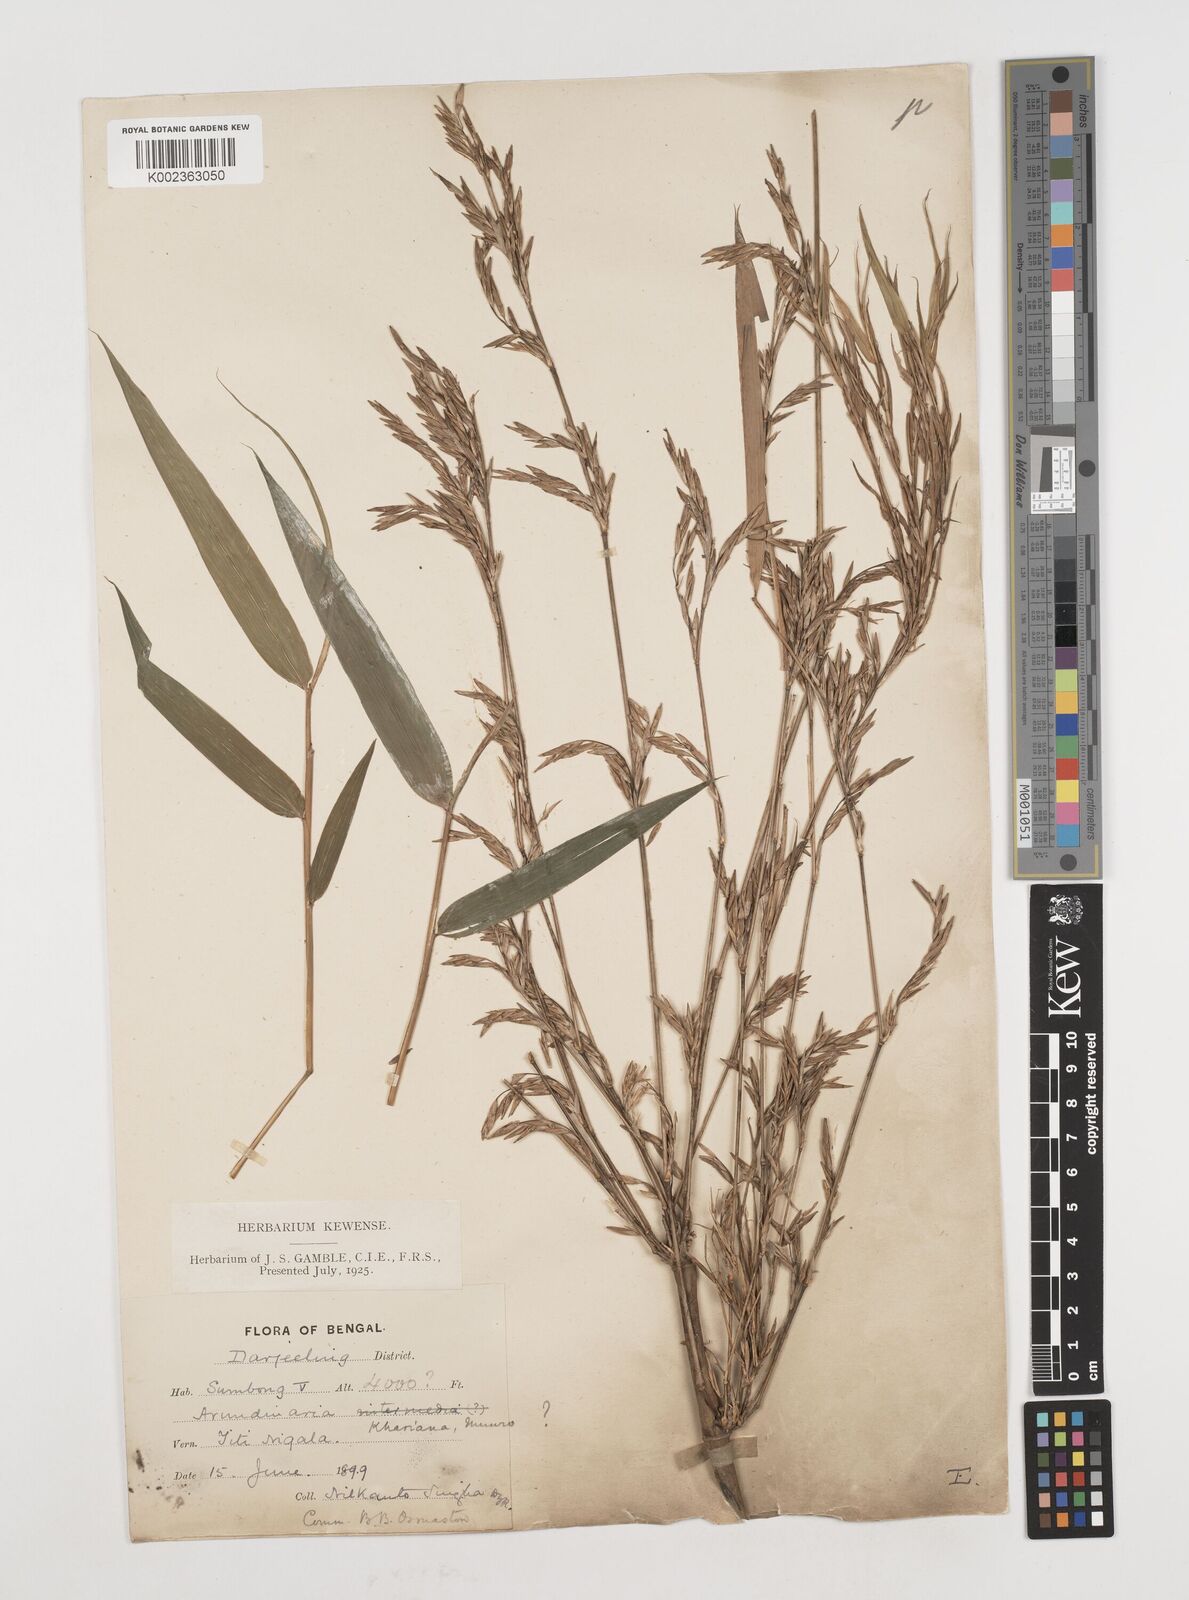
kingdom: Plantae
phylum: Tracheophyta
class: Liliopsida
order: Poales
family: Poaceae
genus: Drepanostachyum
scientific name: Drepanostachyum khasianum
